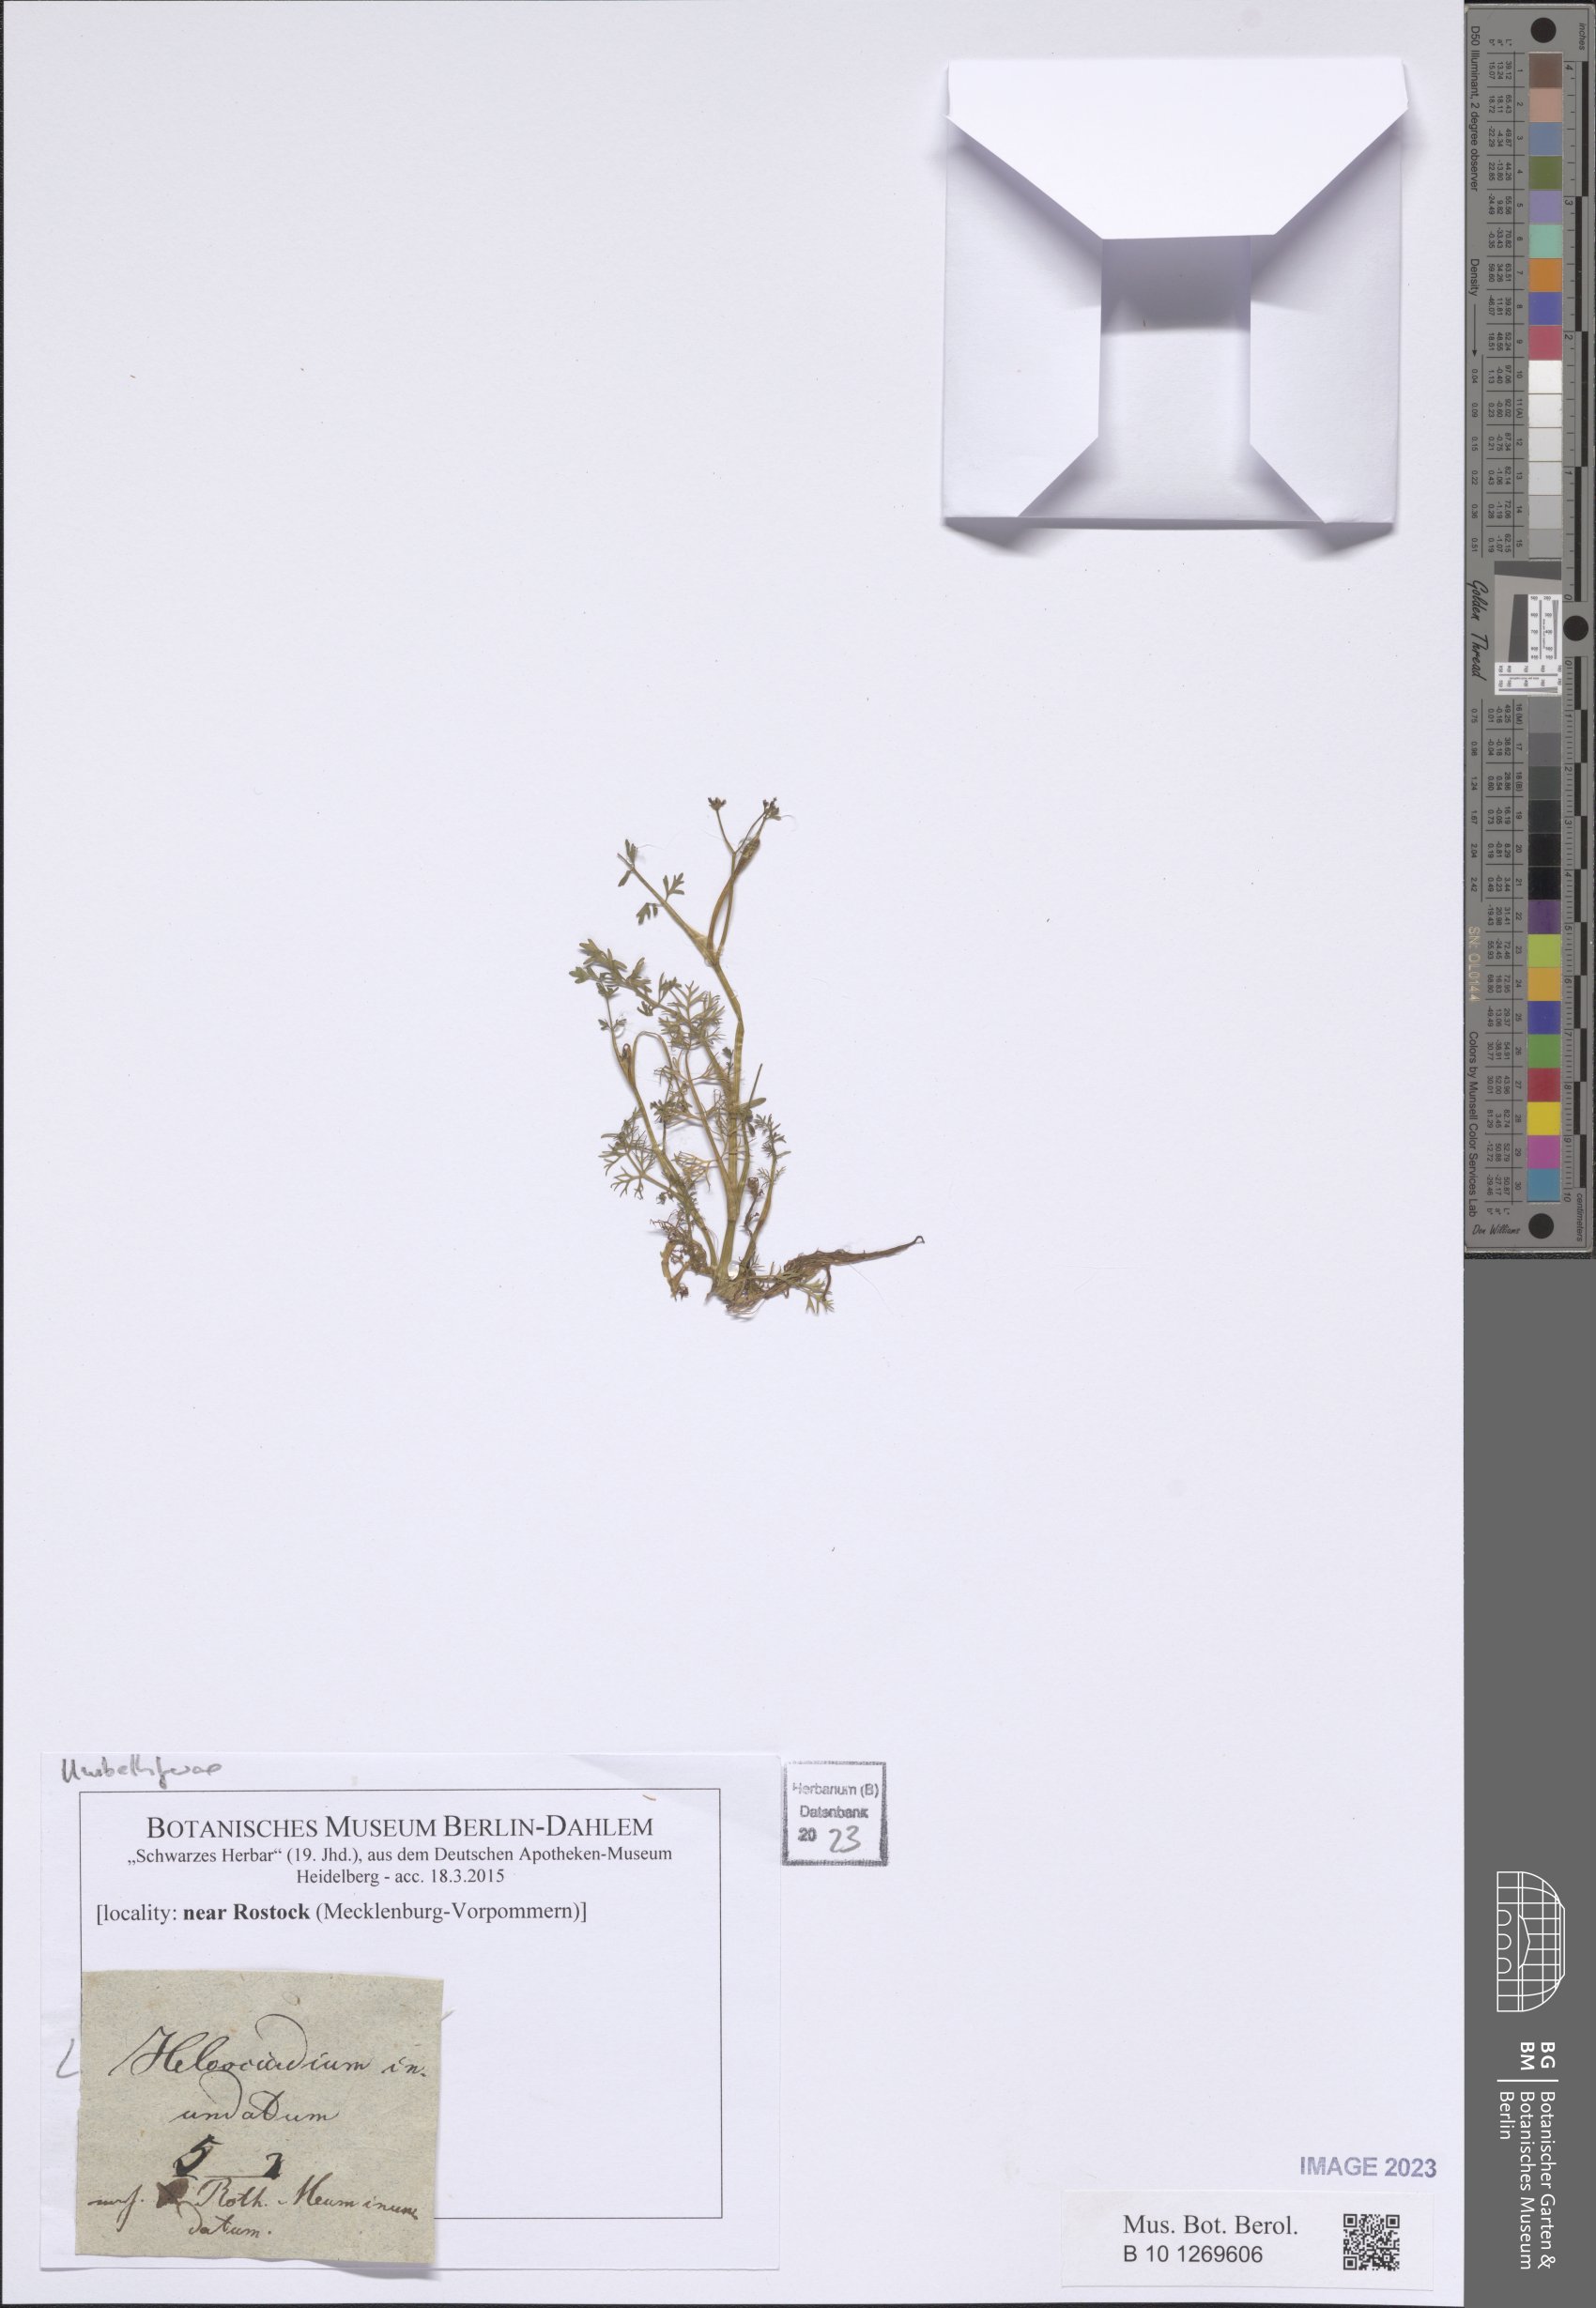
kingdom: Plantae
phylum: Tracheophyta
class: Magnoliopsida
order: Apiales
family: Apiaceae
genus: Helosciadium
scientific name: Helosciadium inundatum
